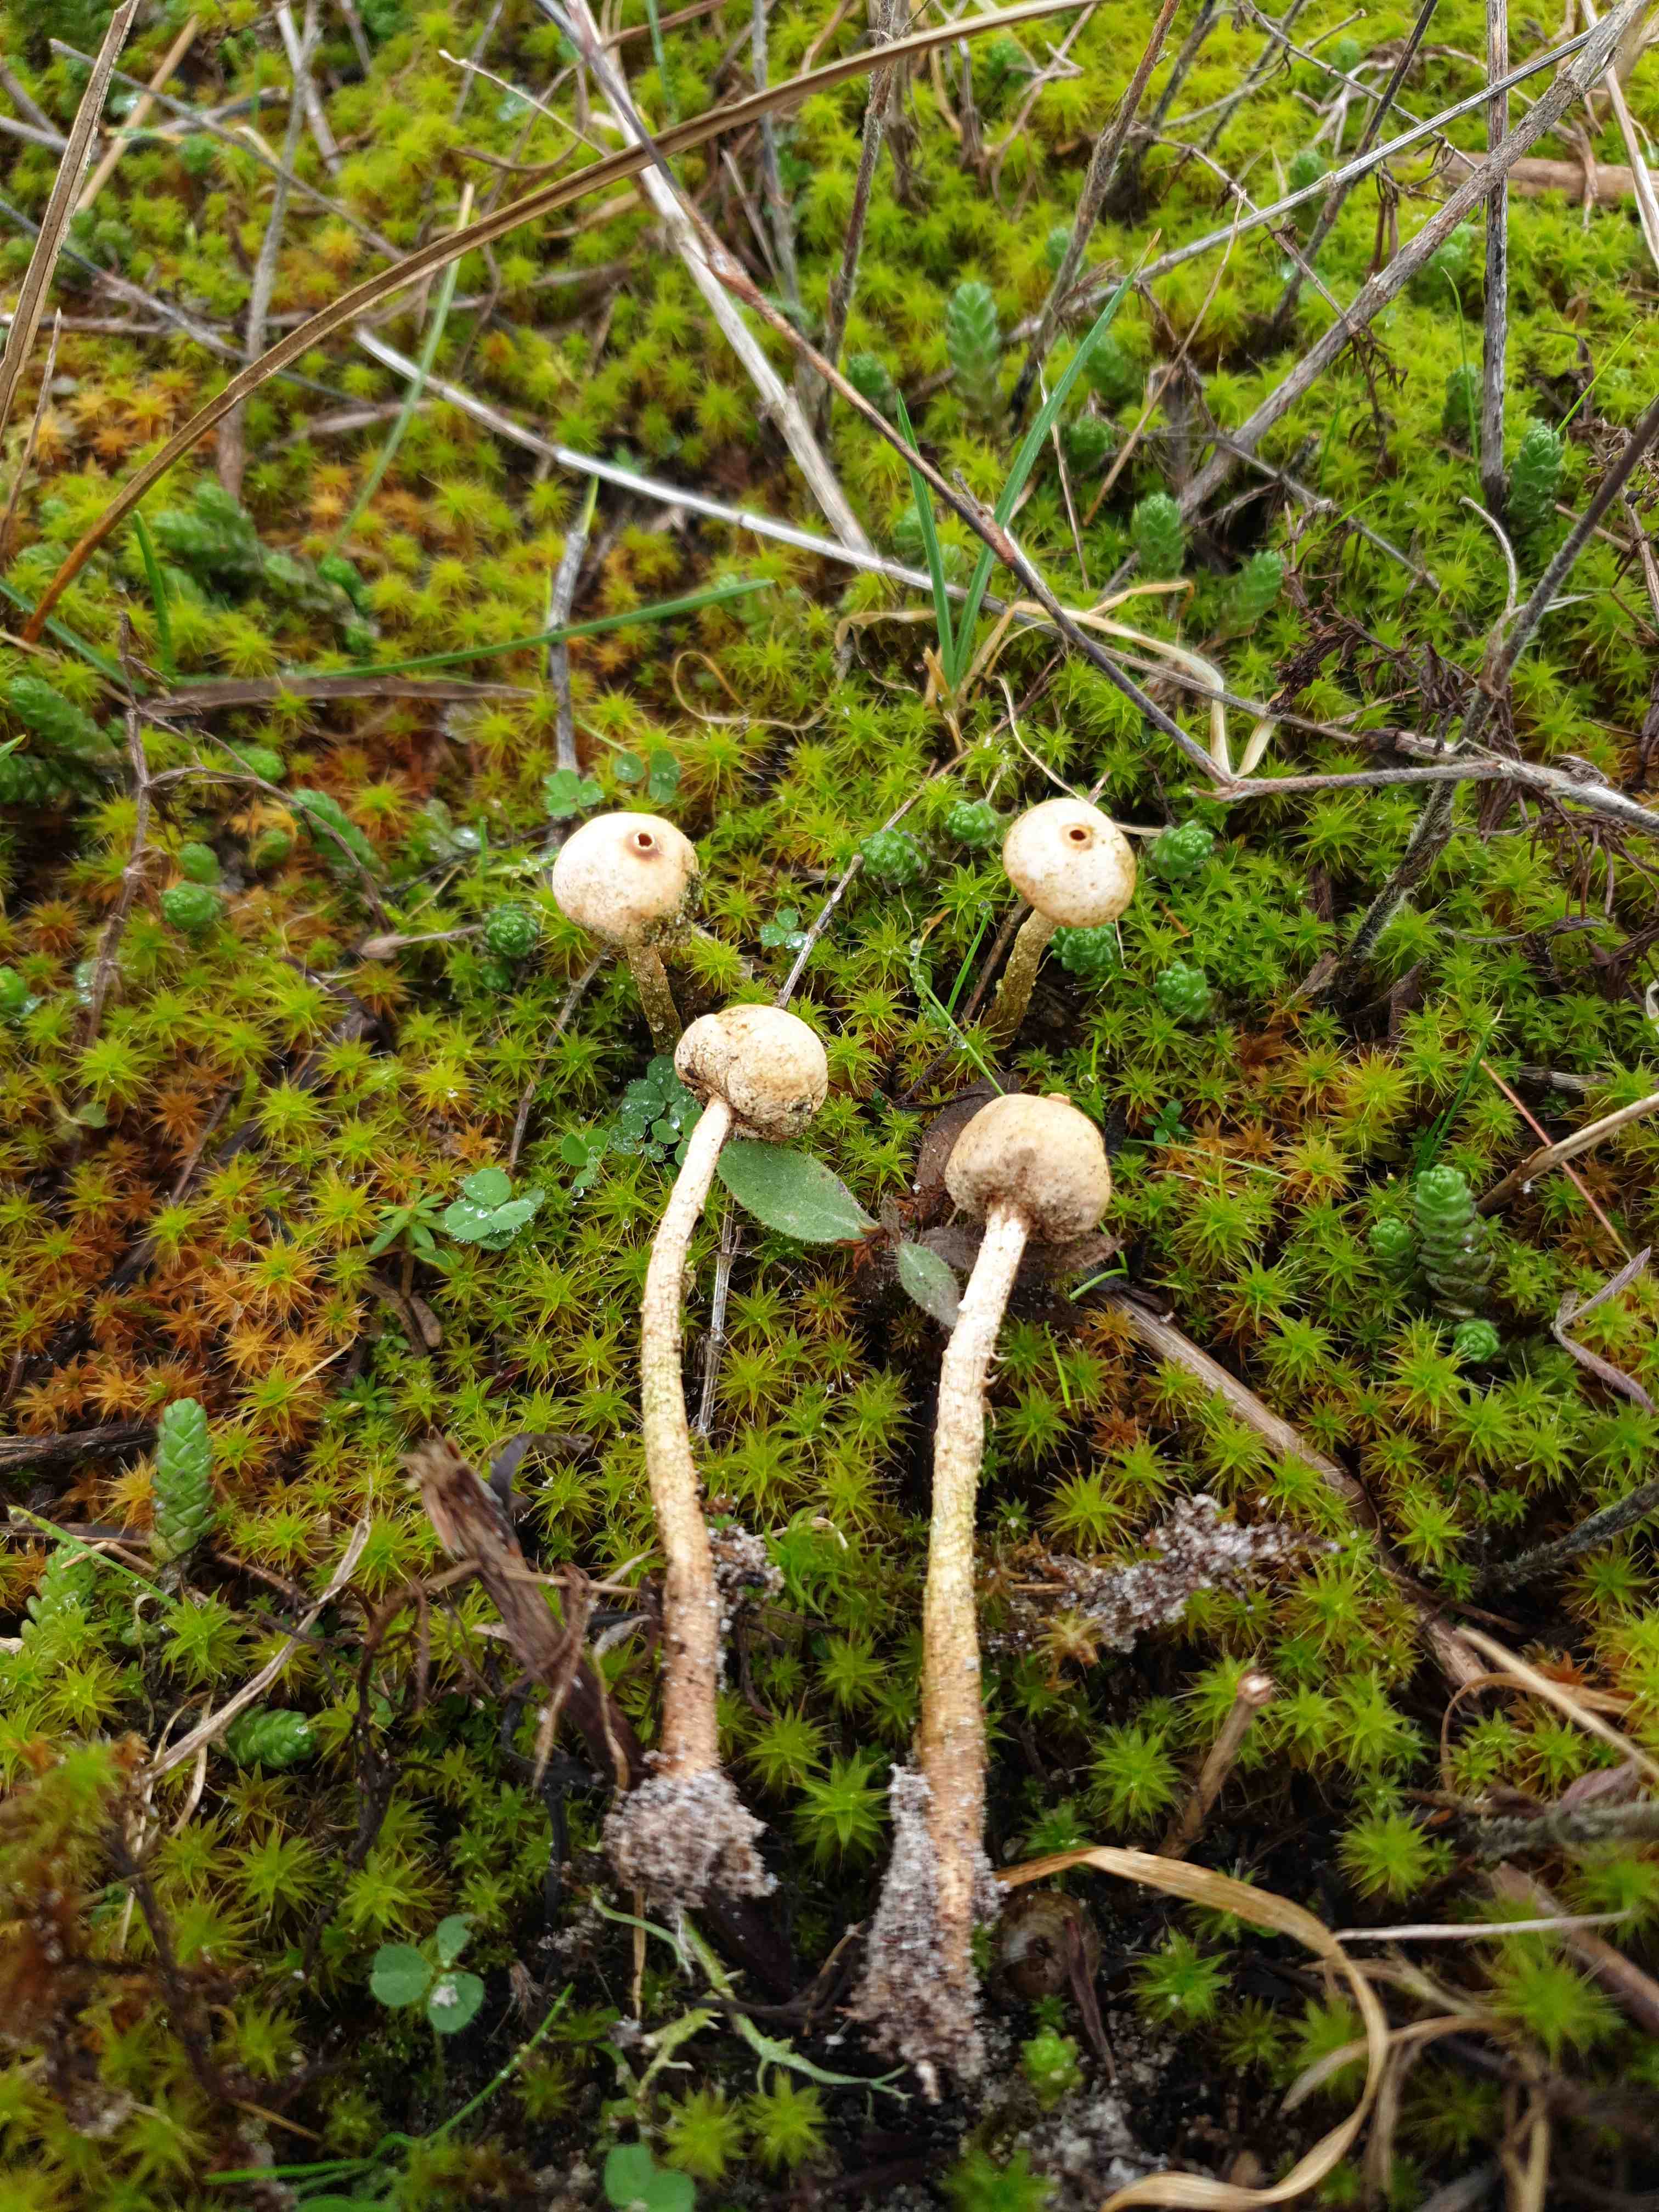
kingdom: Fungi
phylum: Basidiomycota
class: Agaricomycetes
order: Agaricales
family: Agaricaceae
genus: Tulostoma
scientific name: Tulostoma brumale
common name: vinter-stilkbovist
